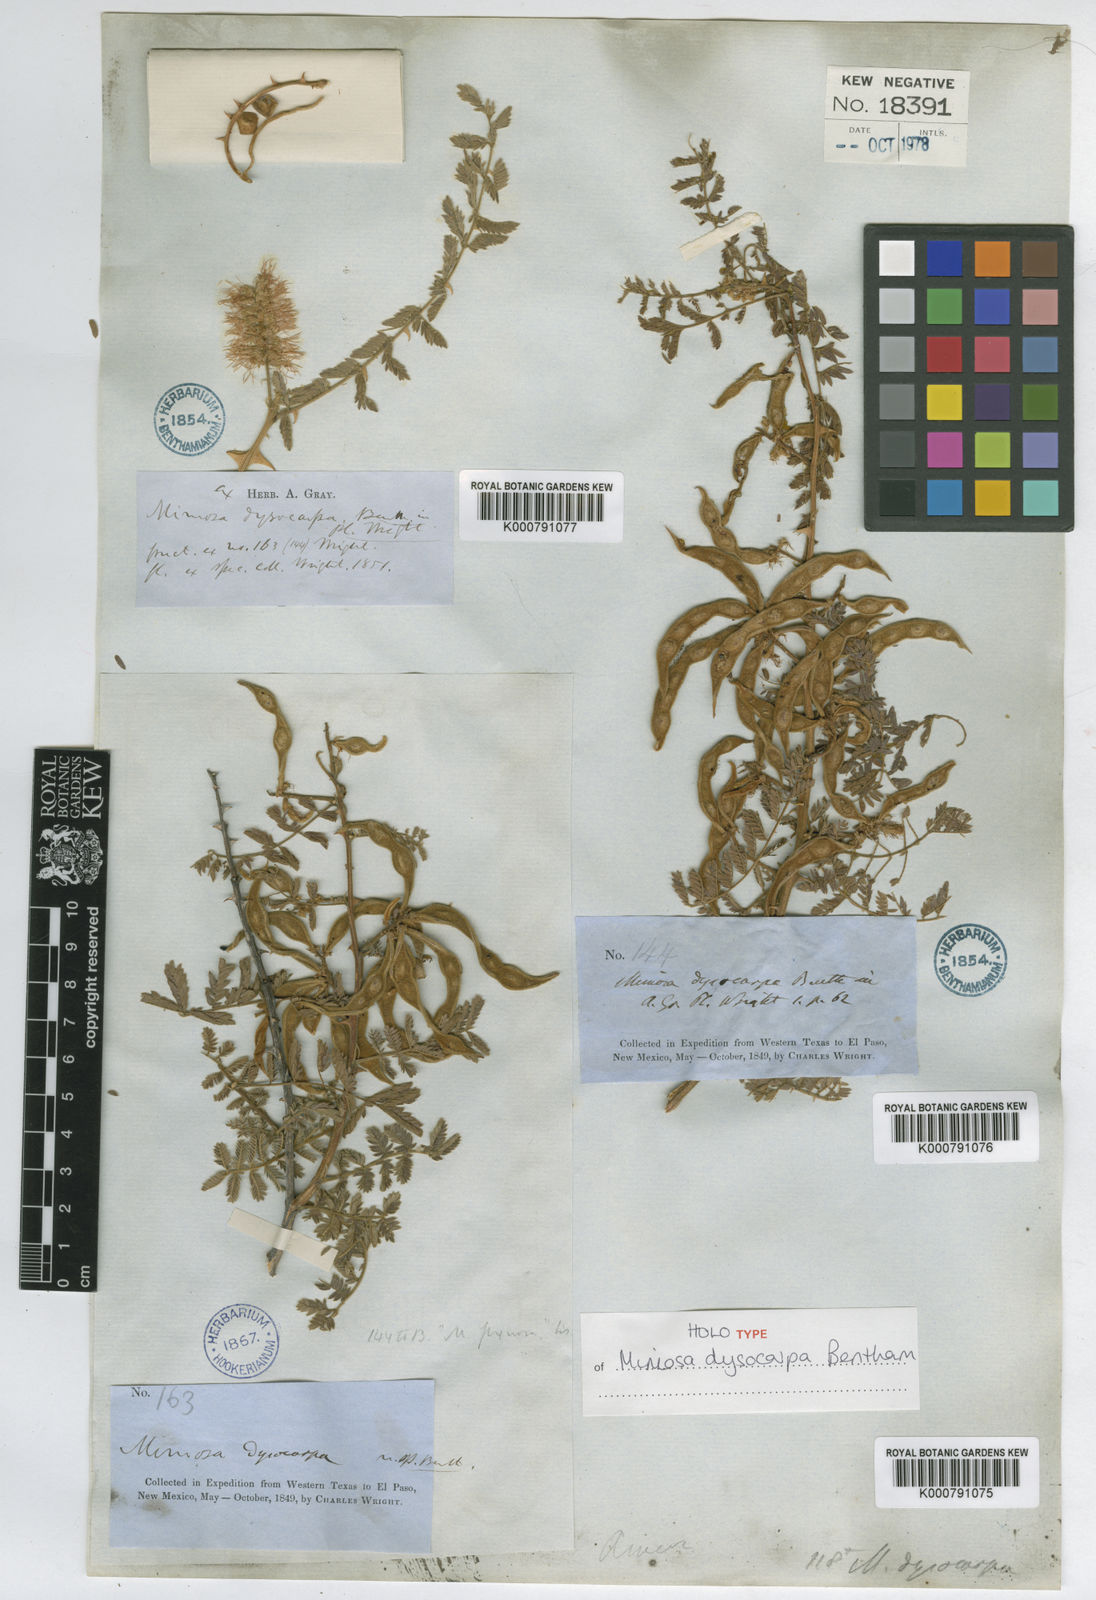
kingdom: Plantae
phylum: Tracheophyta
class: Magnoliopsida
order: Fabales
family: Fabaceae
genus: Mimosa
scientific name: Mimosa dysocarpa
